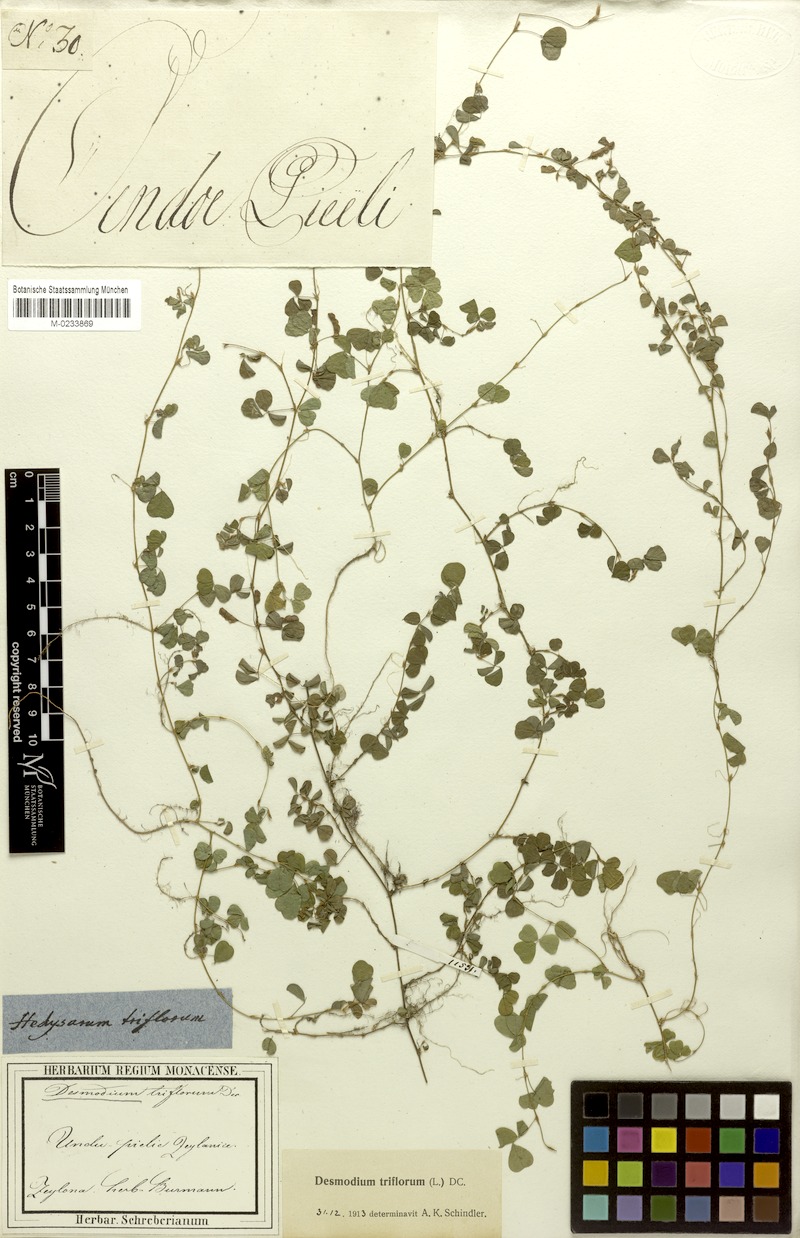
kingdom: Plantae
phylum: Tracheophyta
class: Magnoliopsida
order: Fabales
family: Fabaceae
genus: Grona
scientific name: Grona triflora
